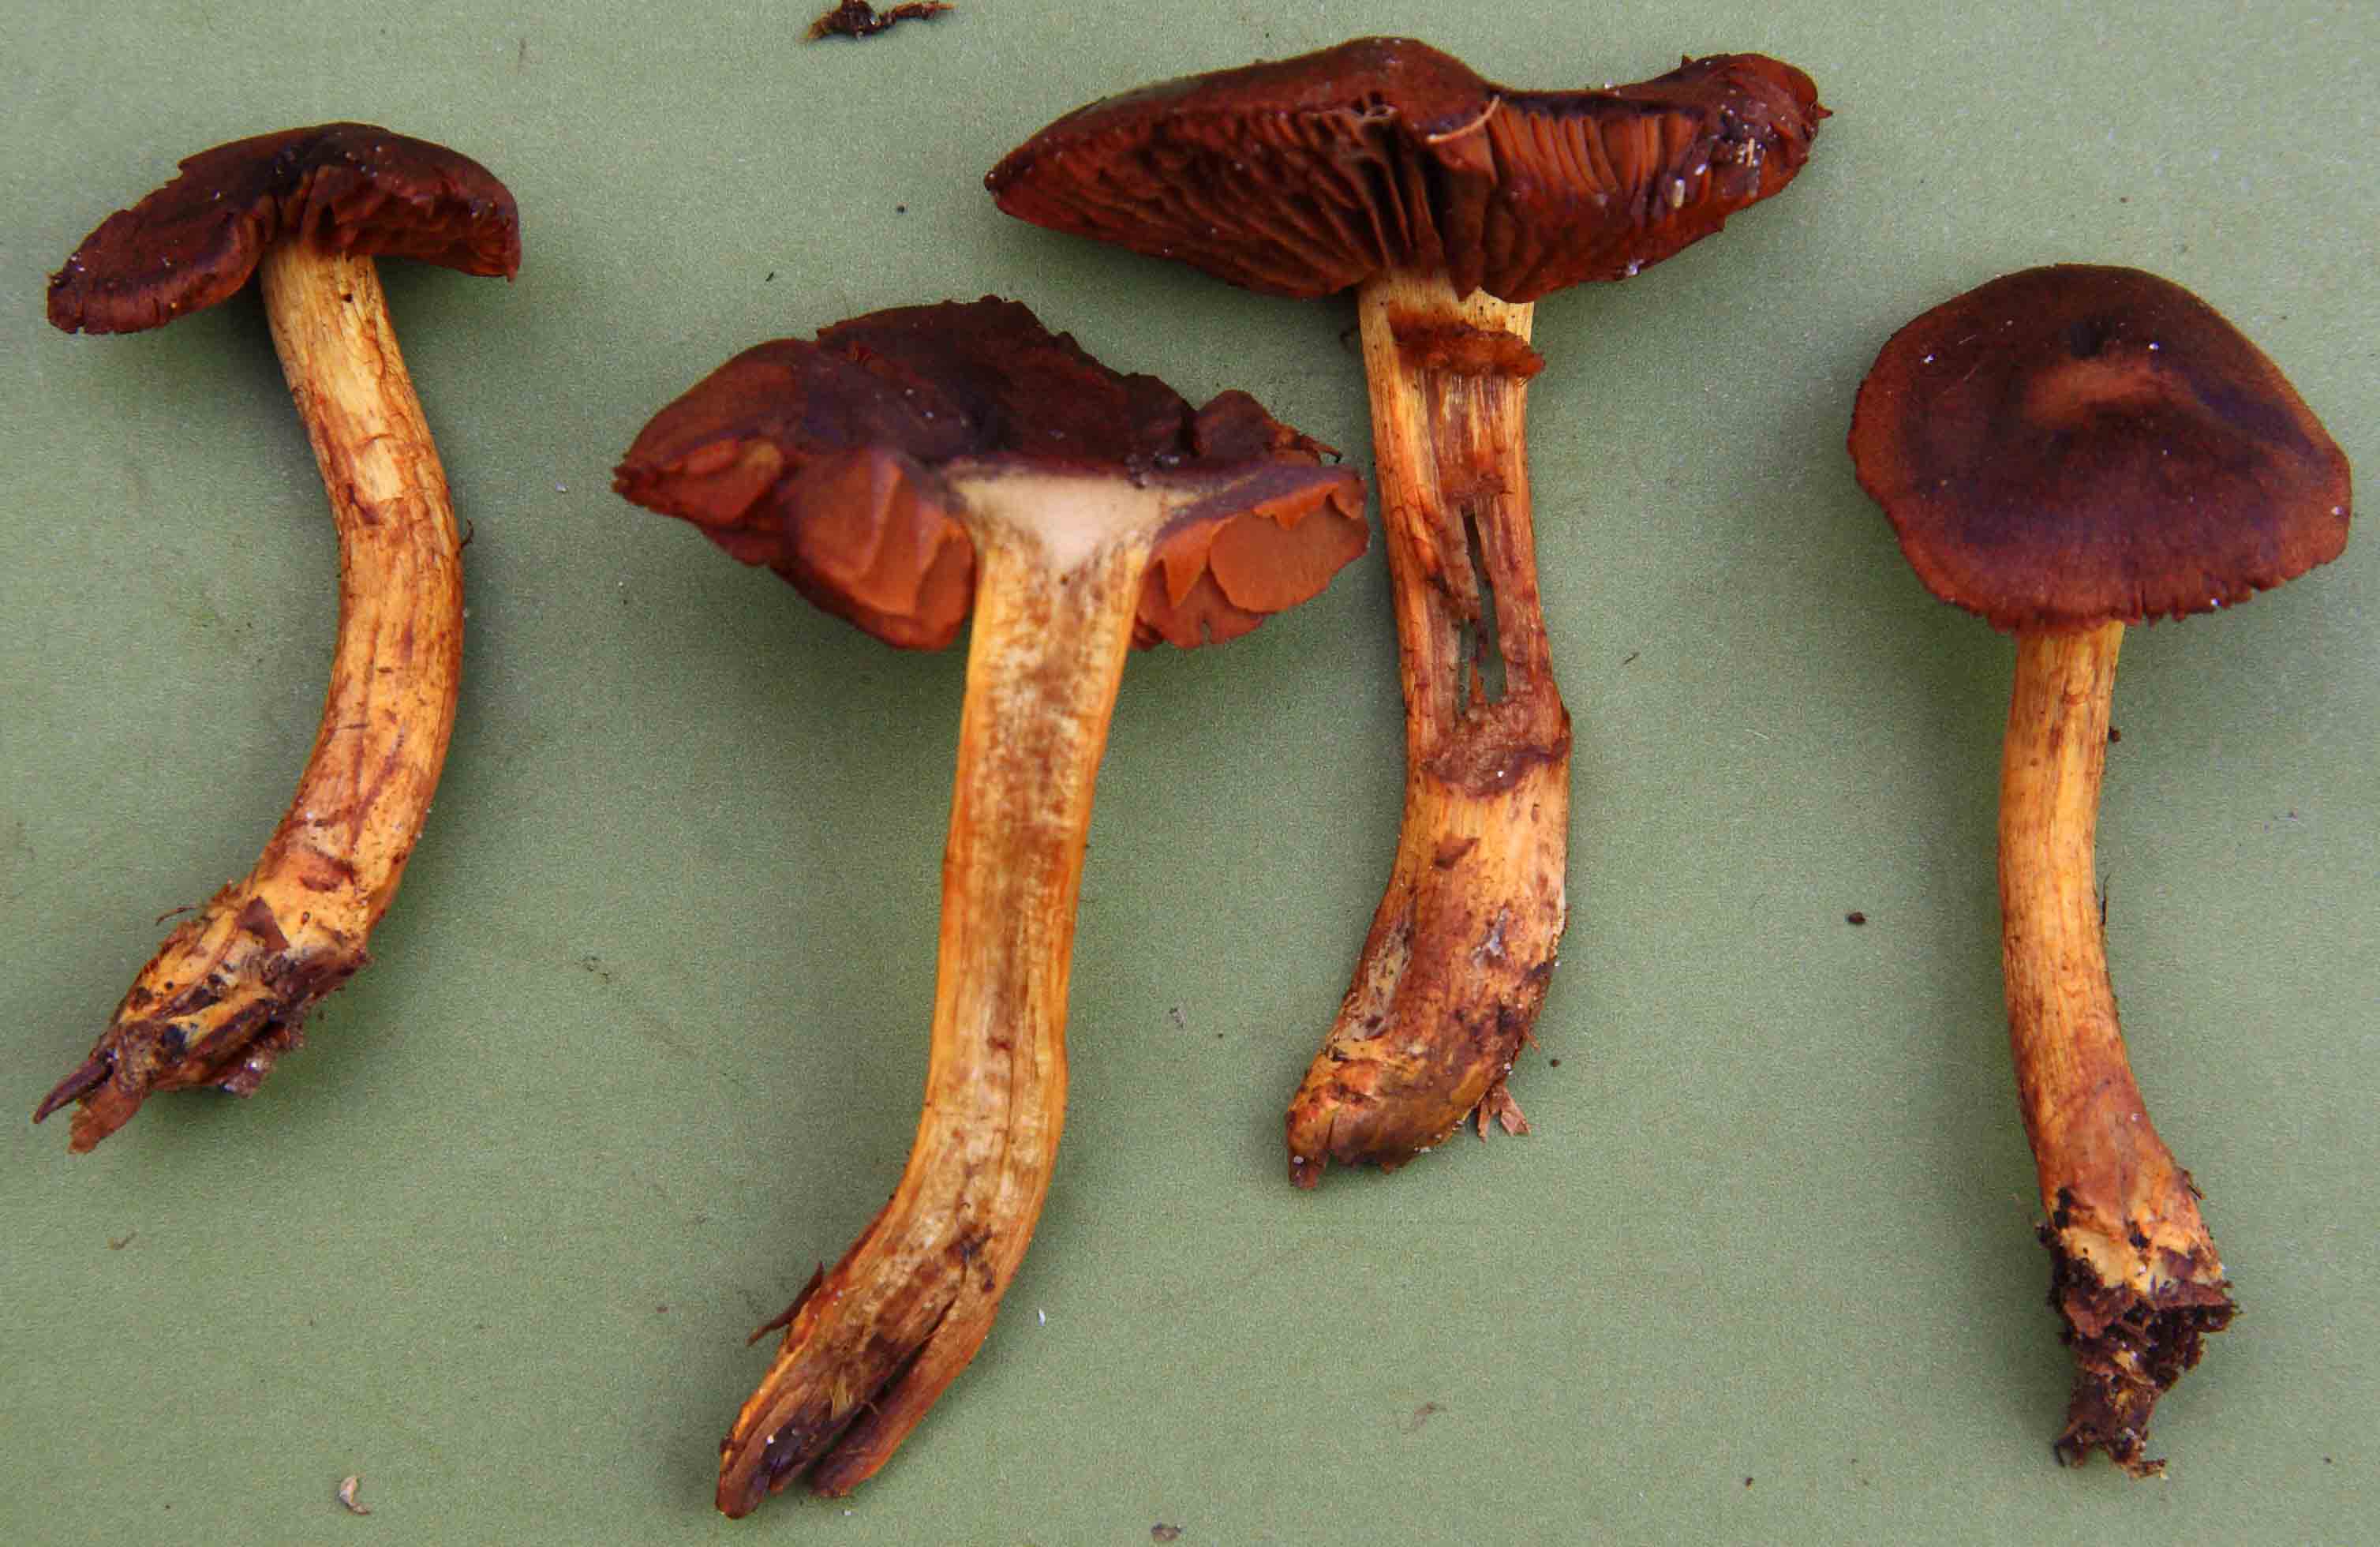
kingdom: Fungi
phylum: Basidiomycota
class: Agaricomycetes
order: Agaricales
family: Cortinariaceae
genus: Cortinarius
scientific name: Cortinarius
